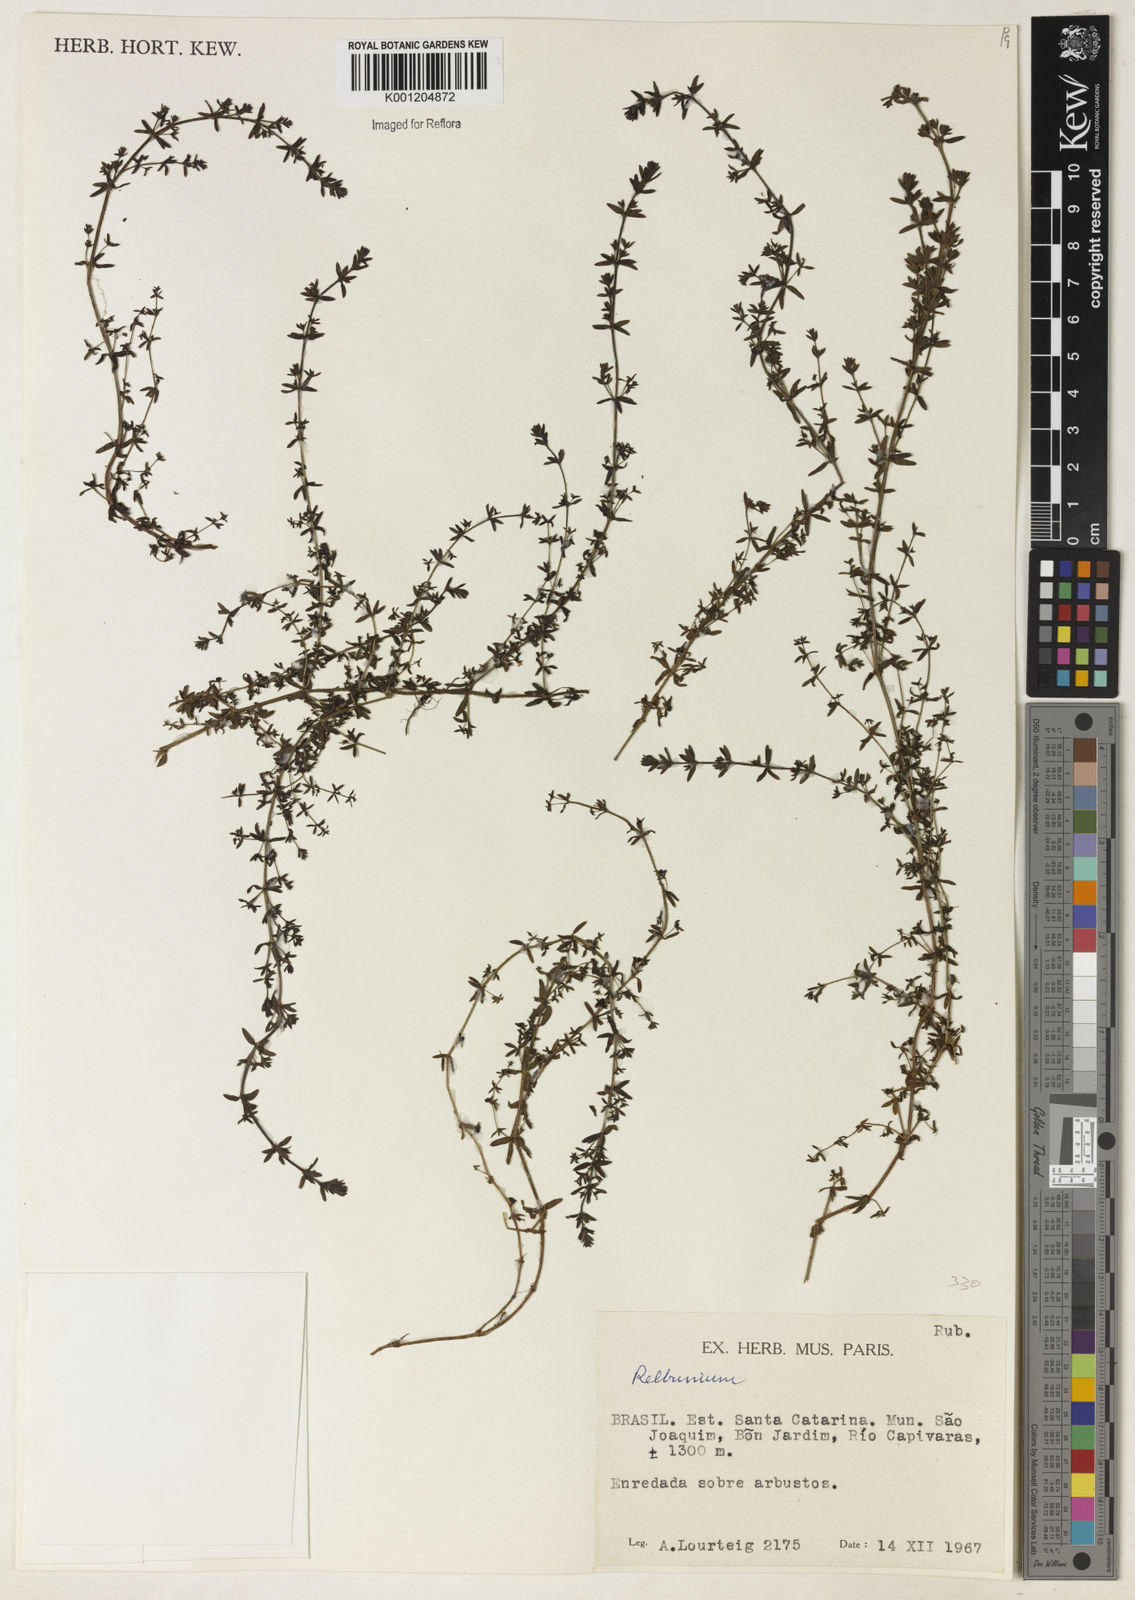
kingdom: Plantae
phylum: Tracheophyta
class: Magnoliopsida
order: Gentianales
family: Rubiaceae
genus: Galium
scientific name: Galium
